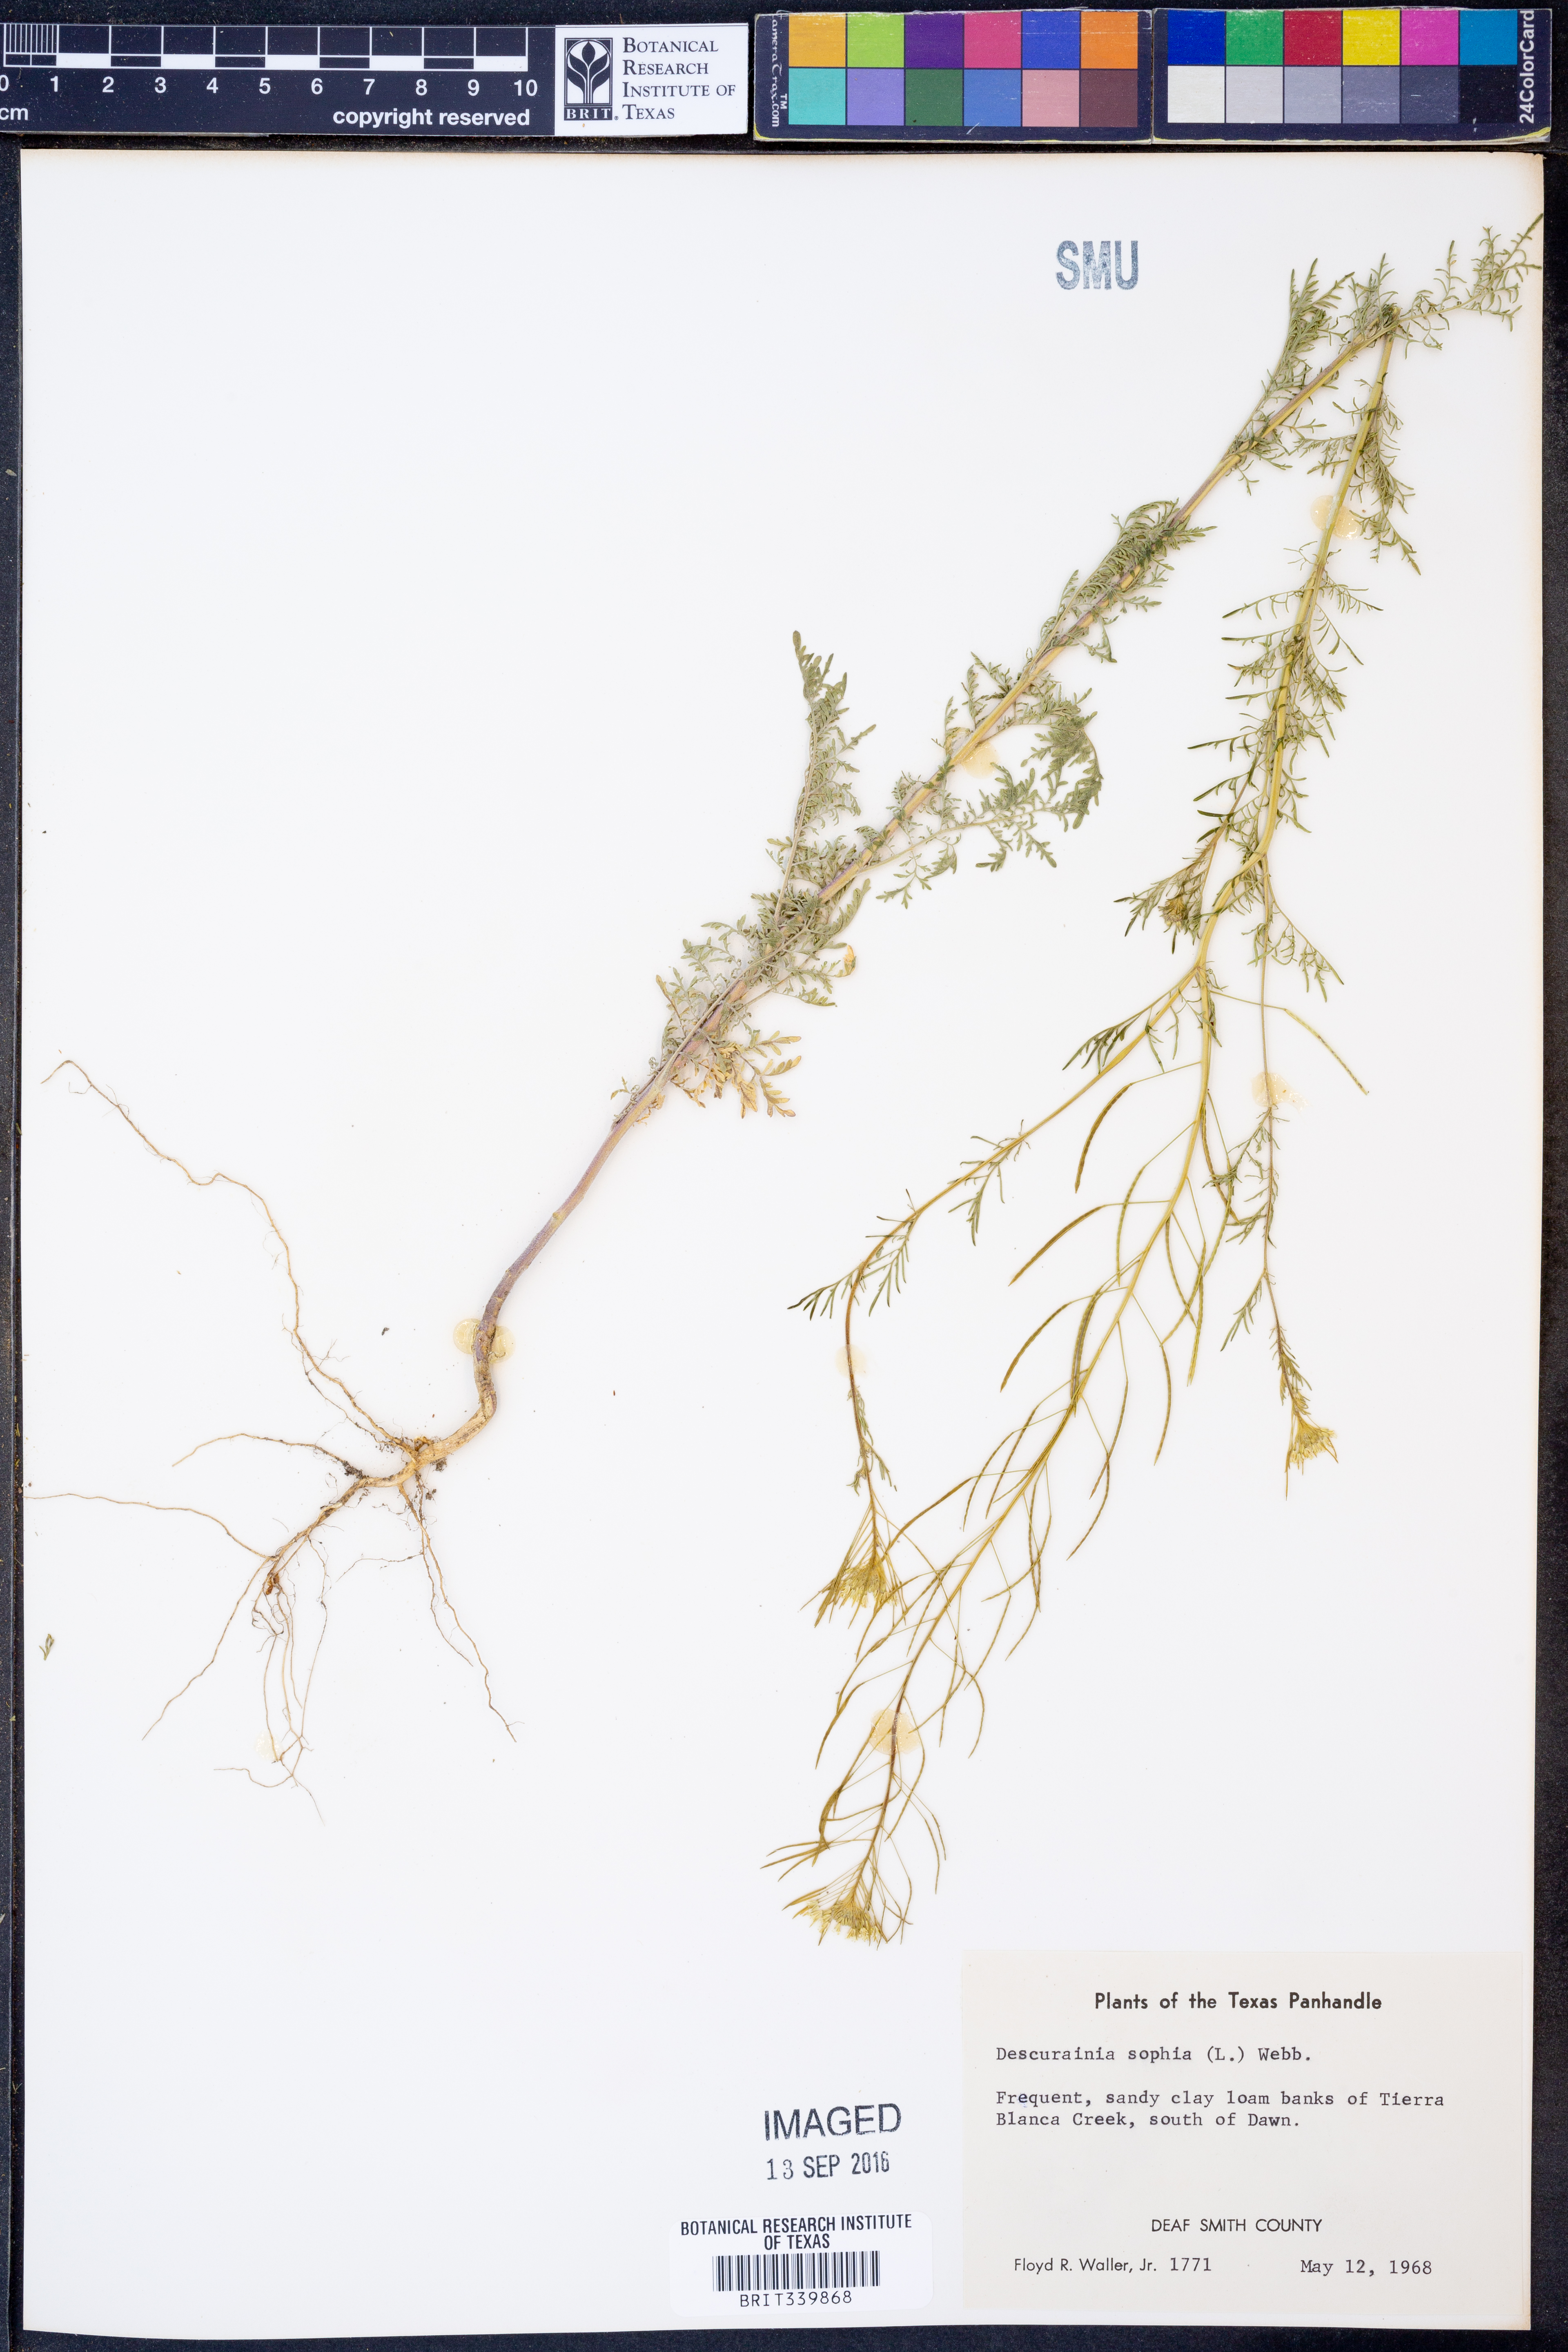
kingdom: Plantae
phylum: Tracheophyta
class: Magnoliopsida
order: Brassicales
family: Brassicaceae
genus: Descurainia
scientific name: Descurainia sophia
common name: Flixweed
